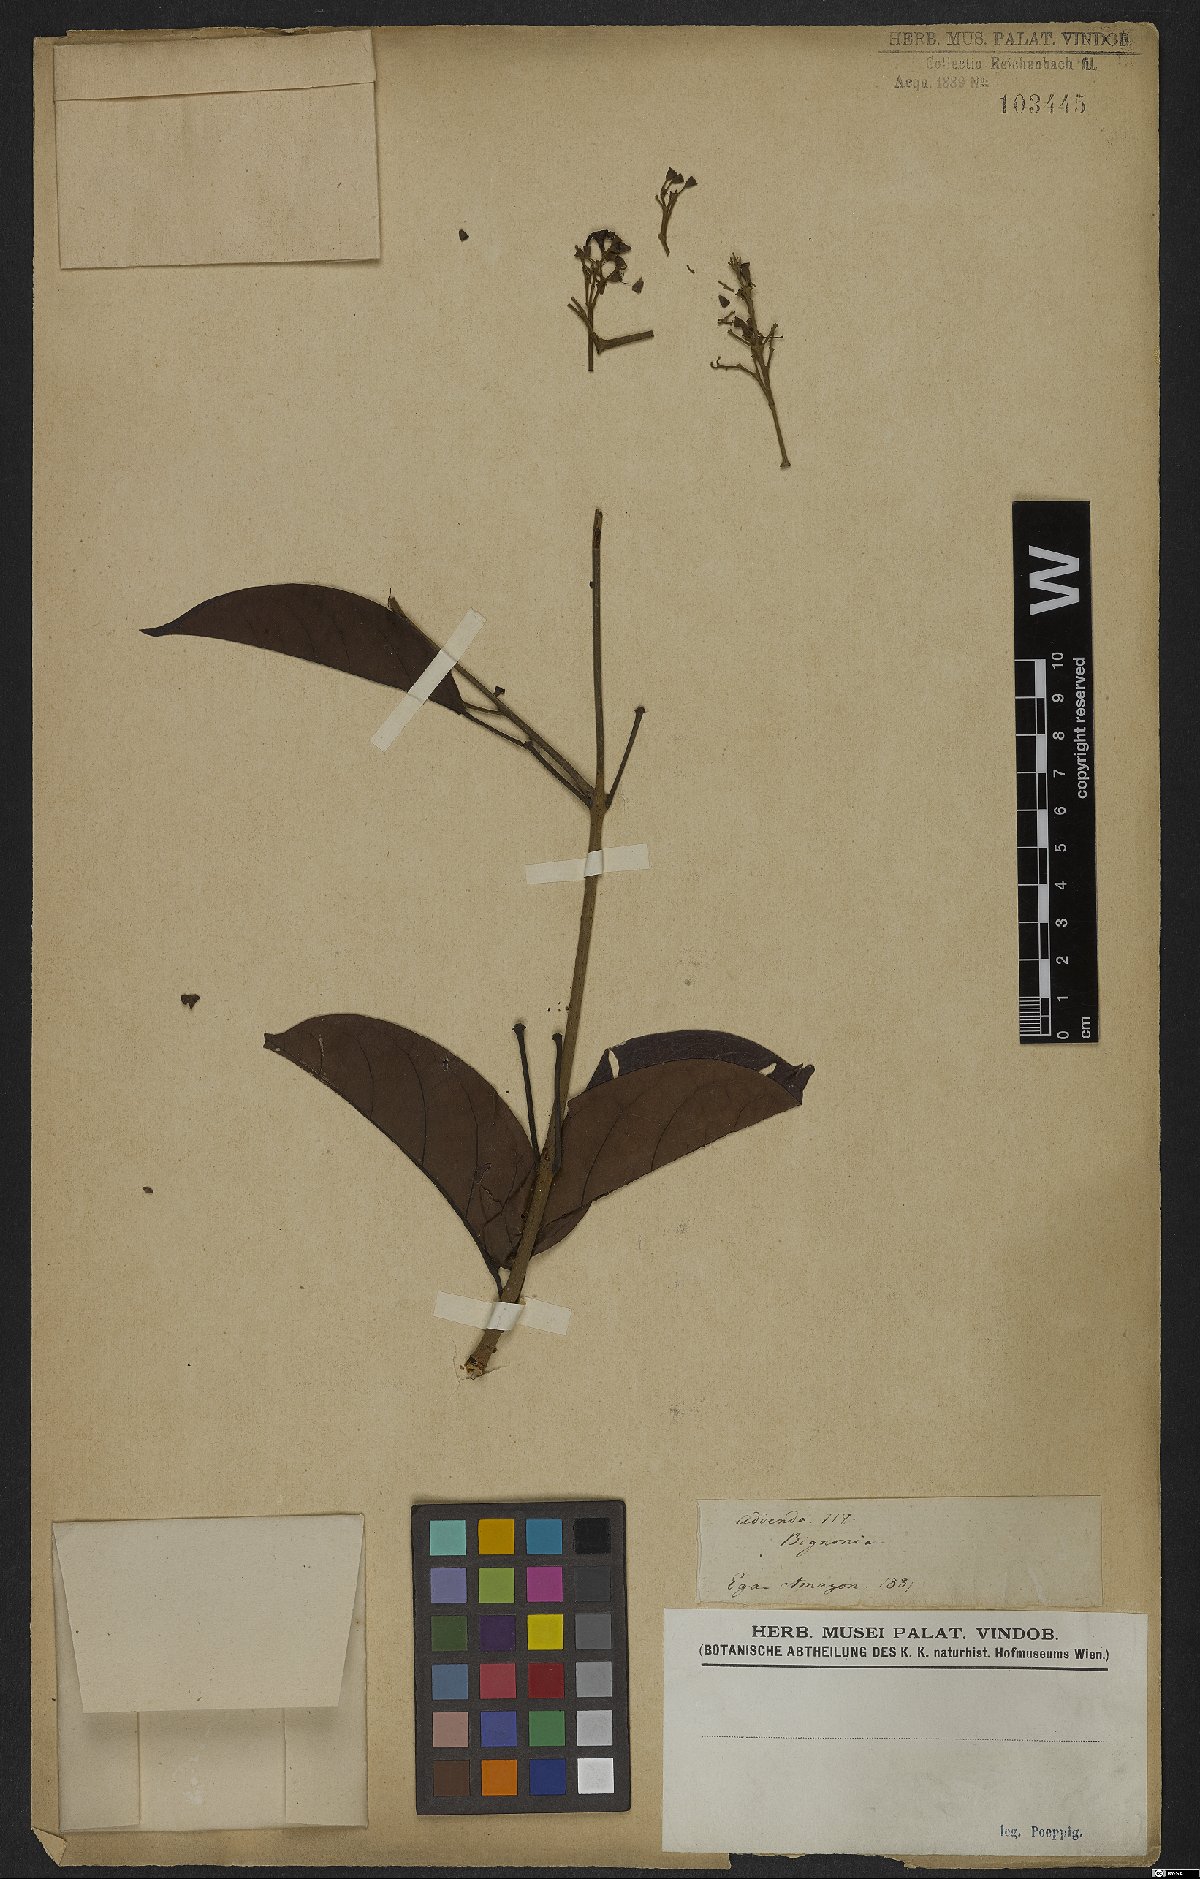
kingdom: Plantae
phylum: Tracheophyta
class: Magnoliopsida
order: Rosales
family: Rhamnaceae
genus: Arrabidaea
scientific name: Arrabidaea
